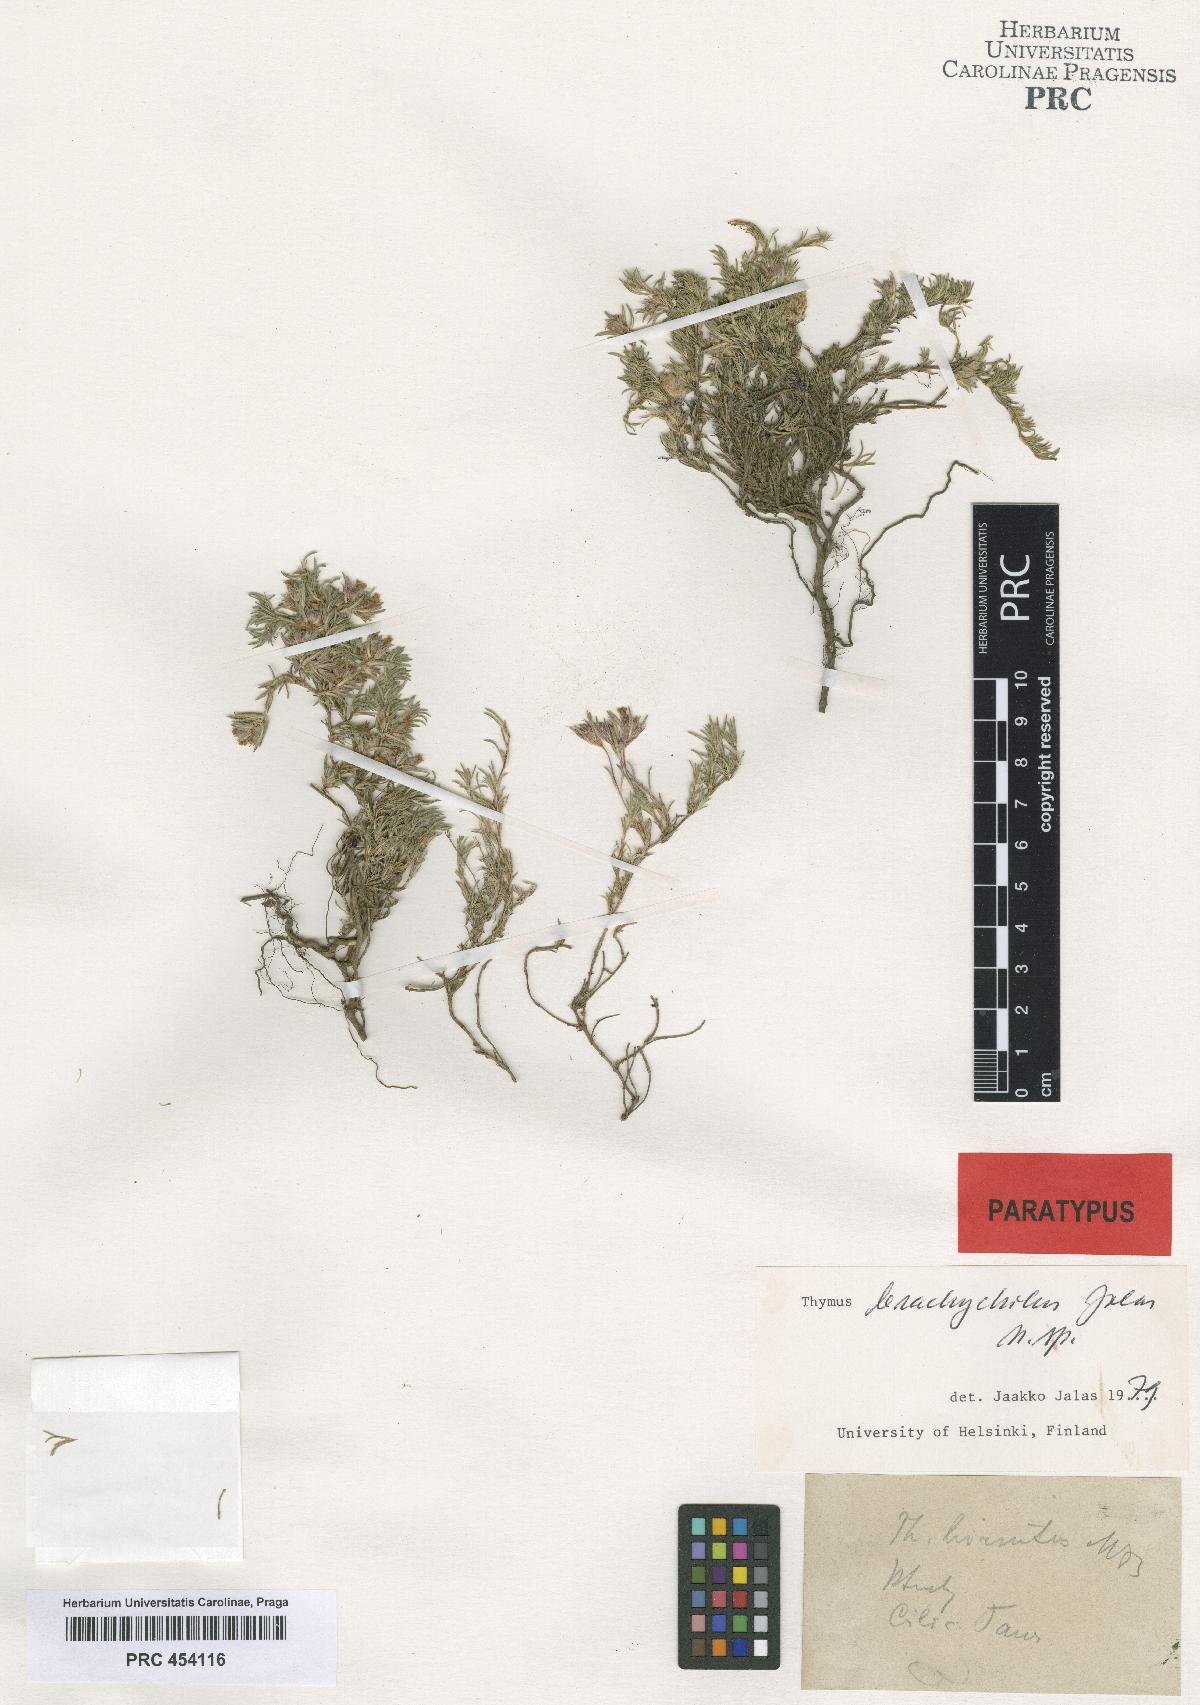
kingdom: Plantae
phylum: Tracheophyta
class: Magnoliopsida
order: Lamiales
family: Lamiaceae
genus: Thymus
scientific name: Thymus brachychilus
